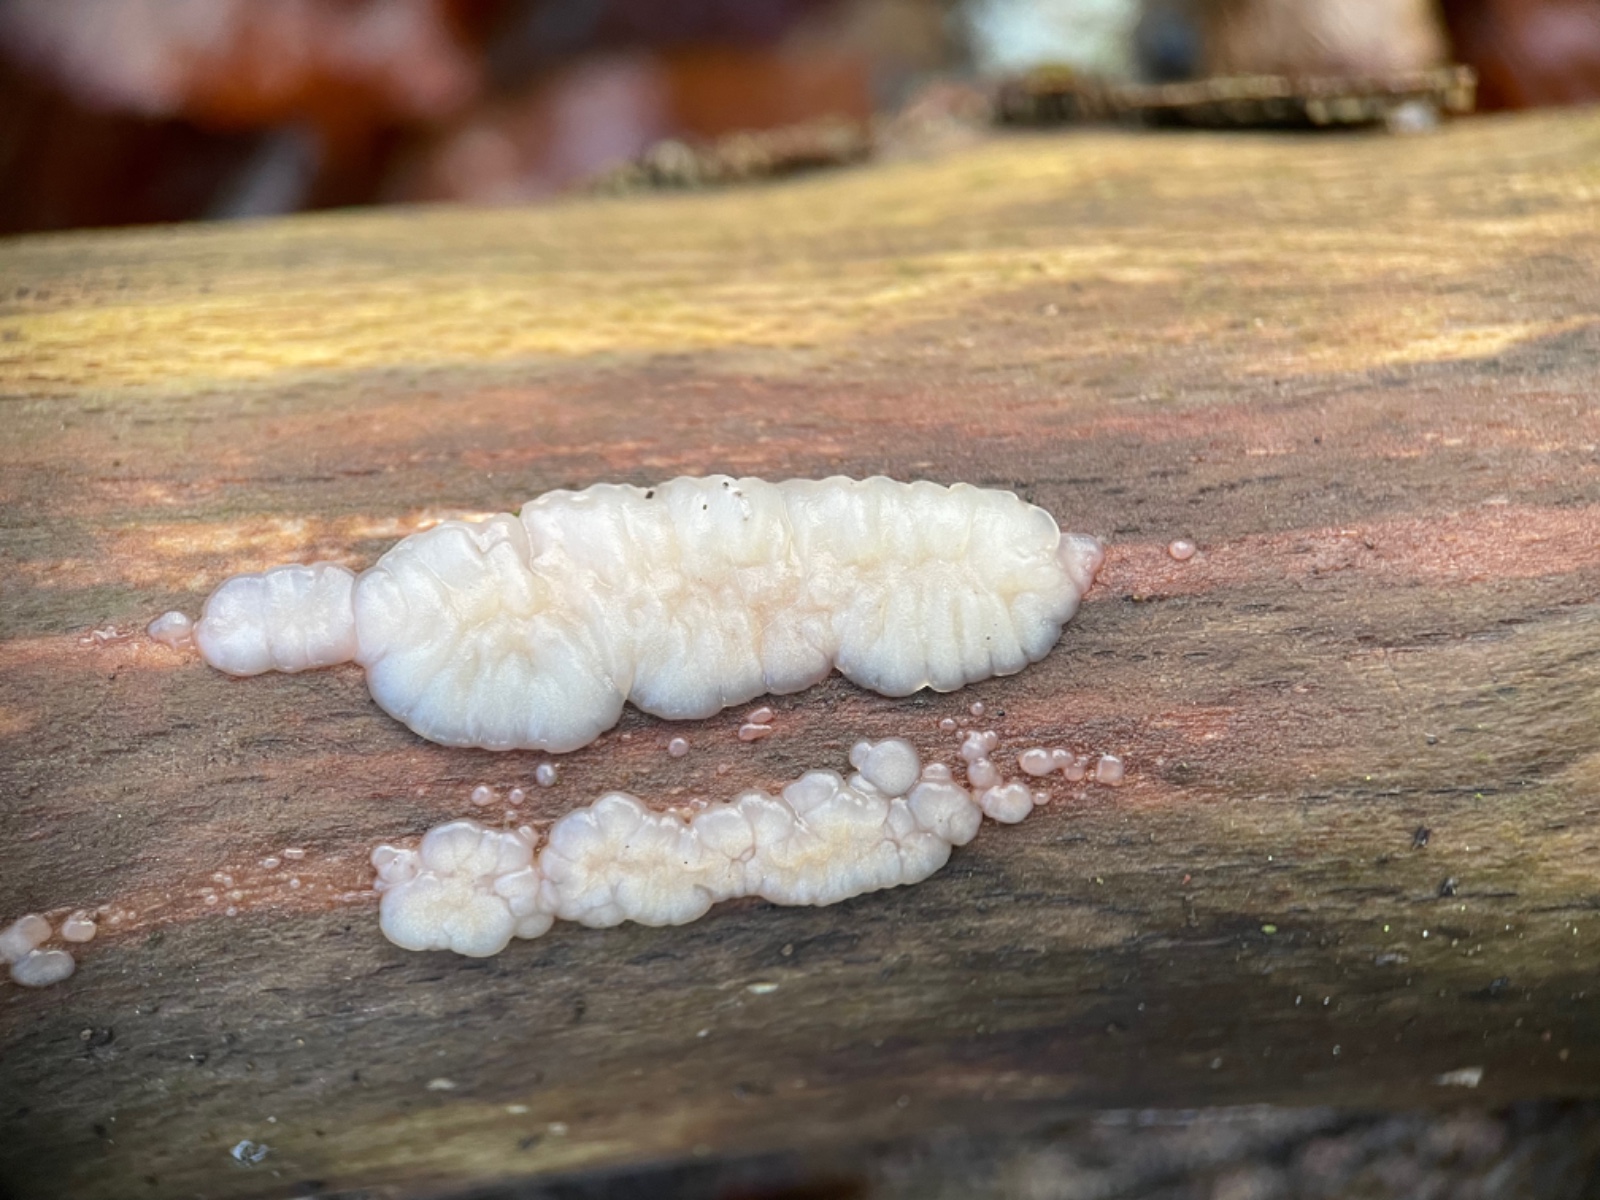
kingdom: Fungi
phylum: Basidiomycota
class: Agaricomycetes
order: Auriculariales
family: Auriculariaceae
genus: Exidia
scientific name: Exidia thuretiana
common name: hvidlig bævretop
